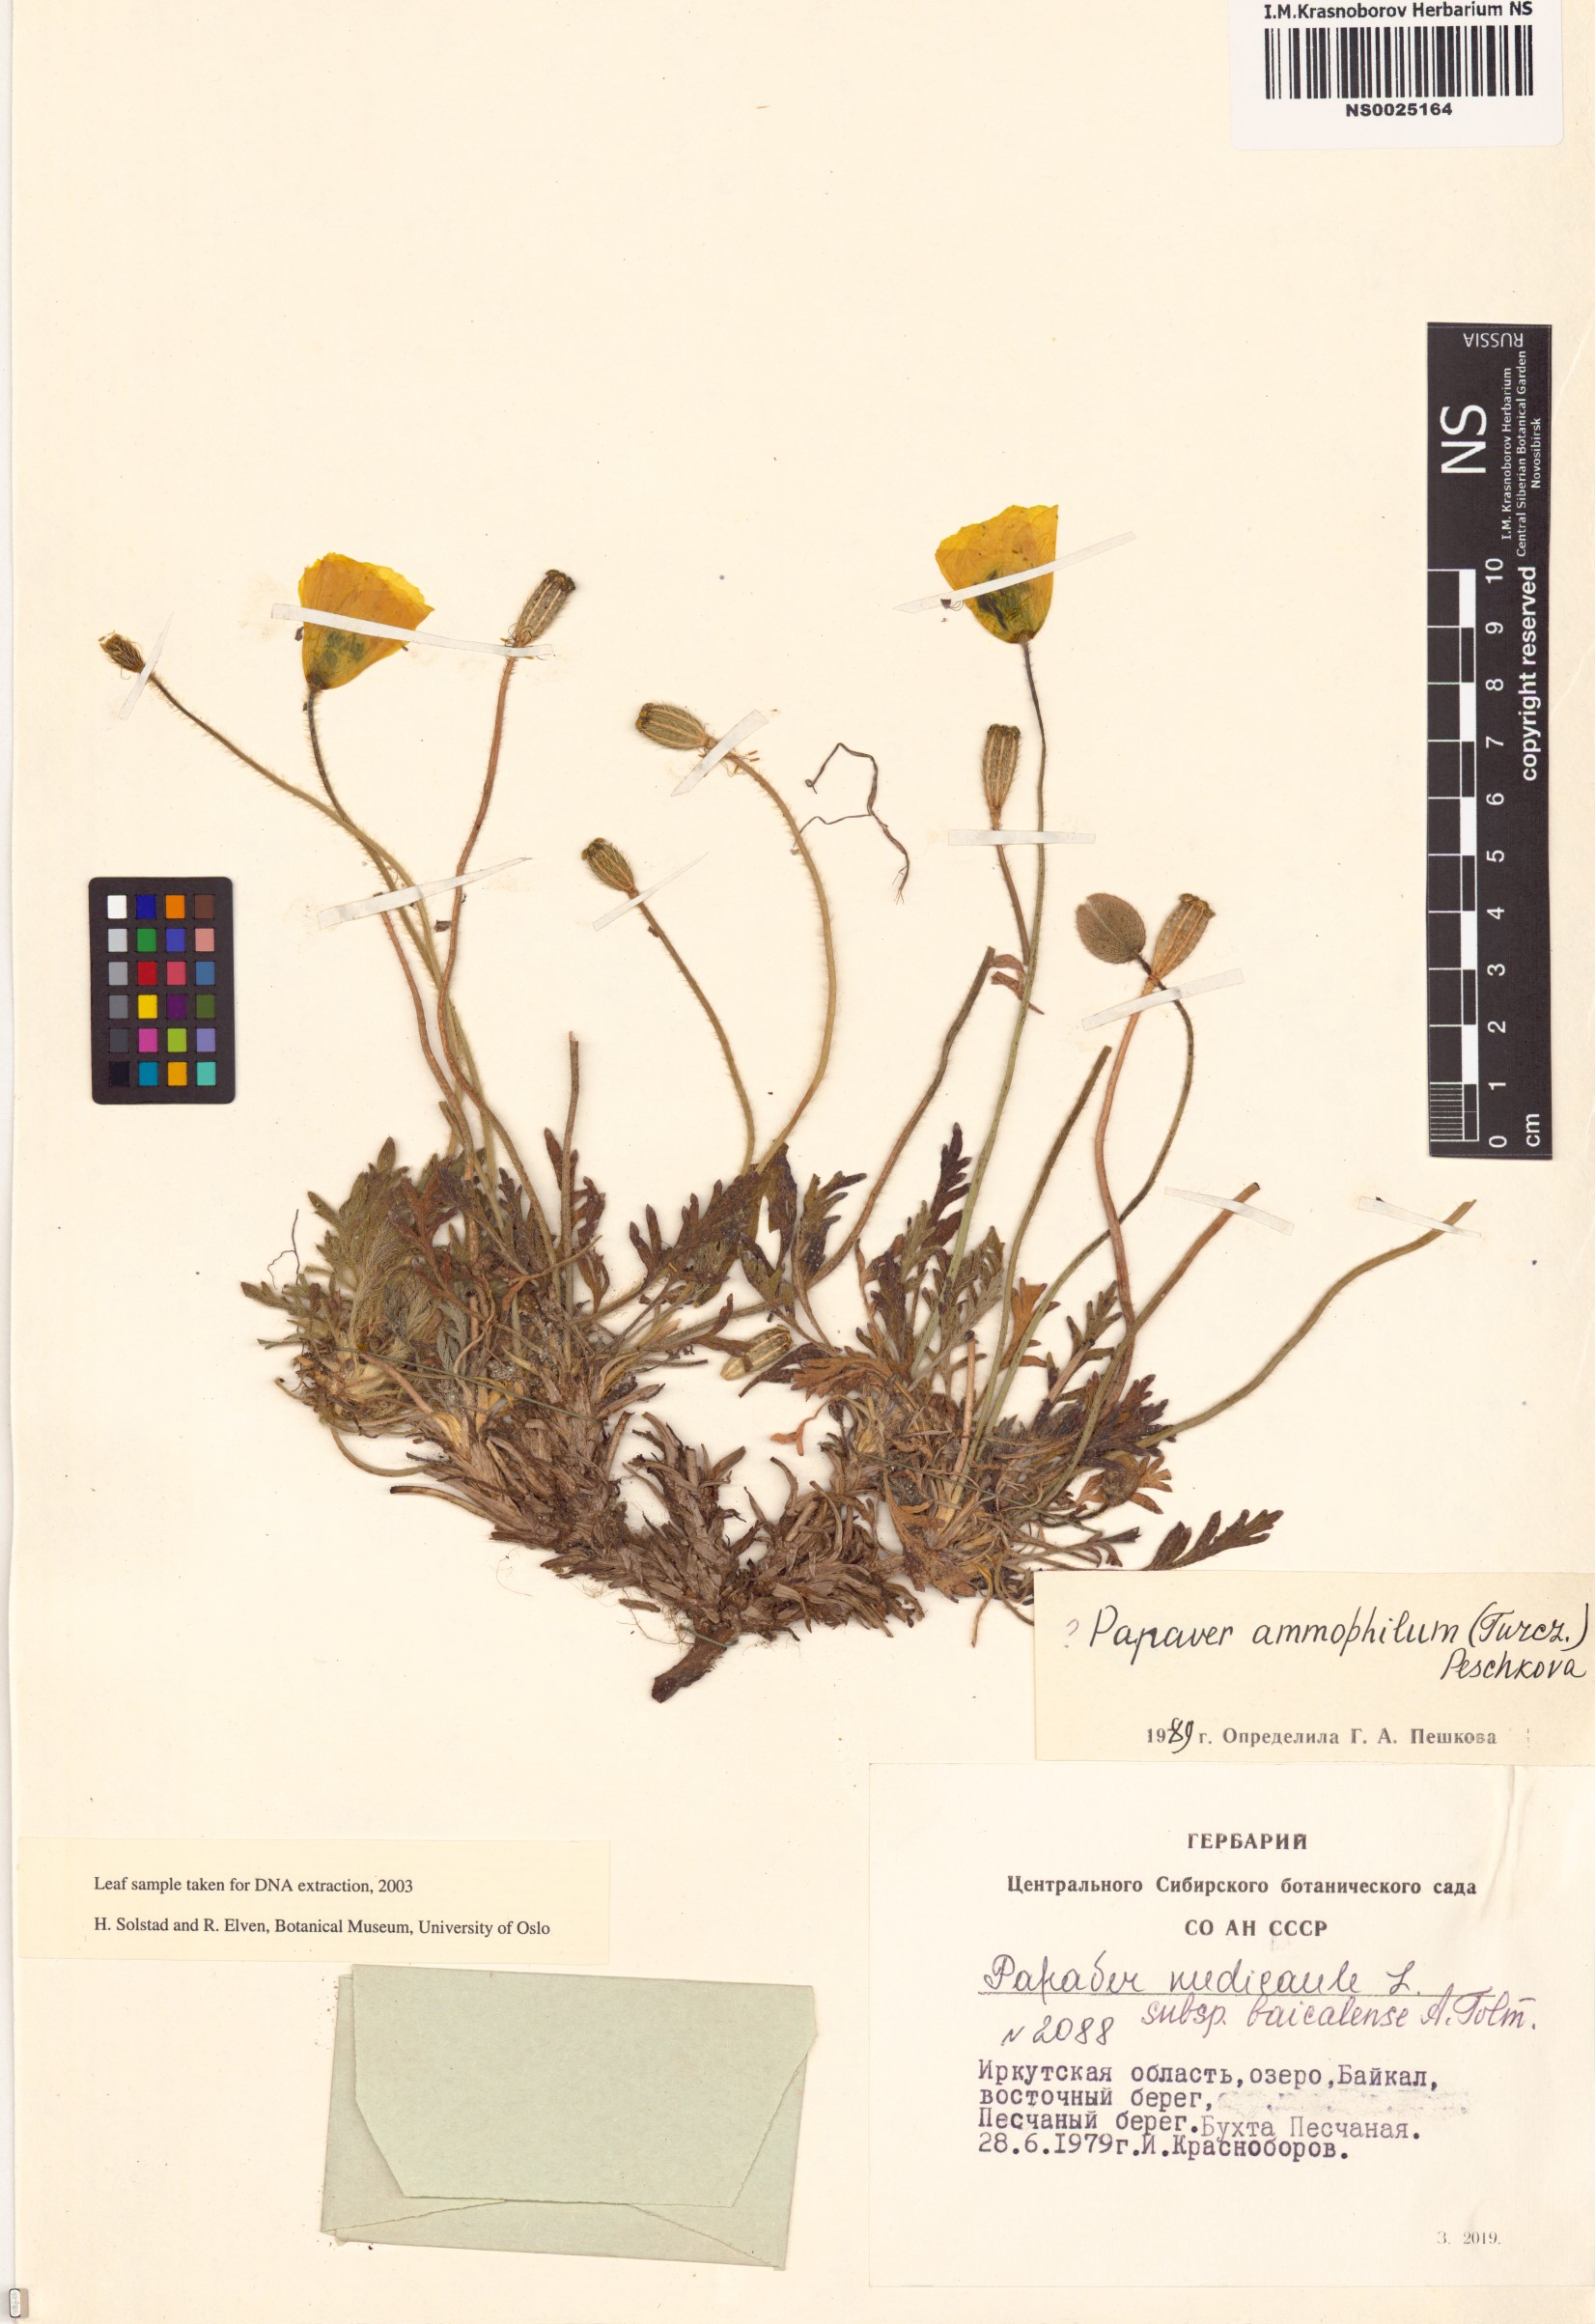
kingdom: Plantae
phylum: Tracheophyta
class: Magnoliopsida
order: Ranunculales
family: Papaveraceae
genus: Papaver
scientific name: Papaver nudicaule
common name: Arctic poppy
